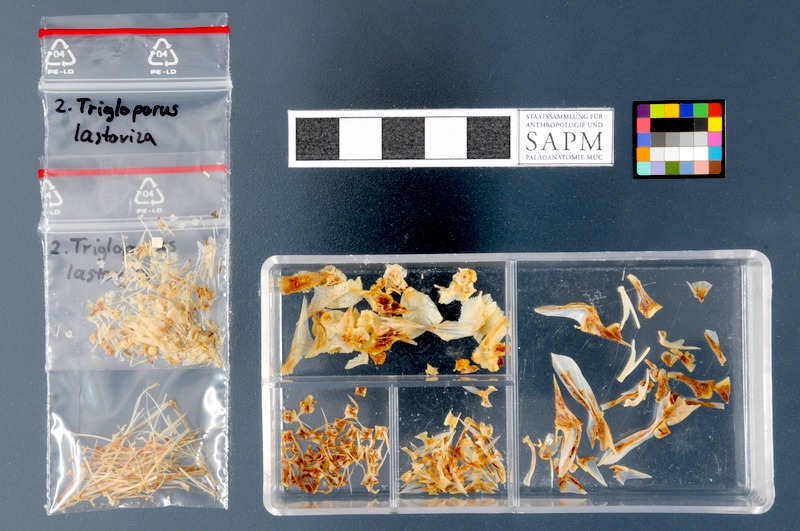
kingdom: Animalia
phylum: Chordata
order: Scorpaeniformes
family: Triglidae
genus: Chelidonichthys
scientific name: Chelidonichthys lastoviza
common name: Streaked gurnard
